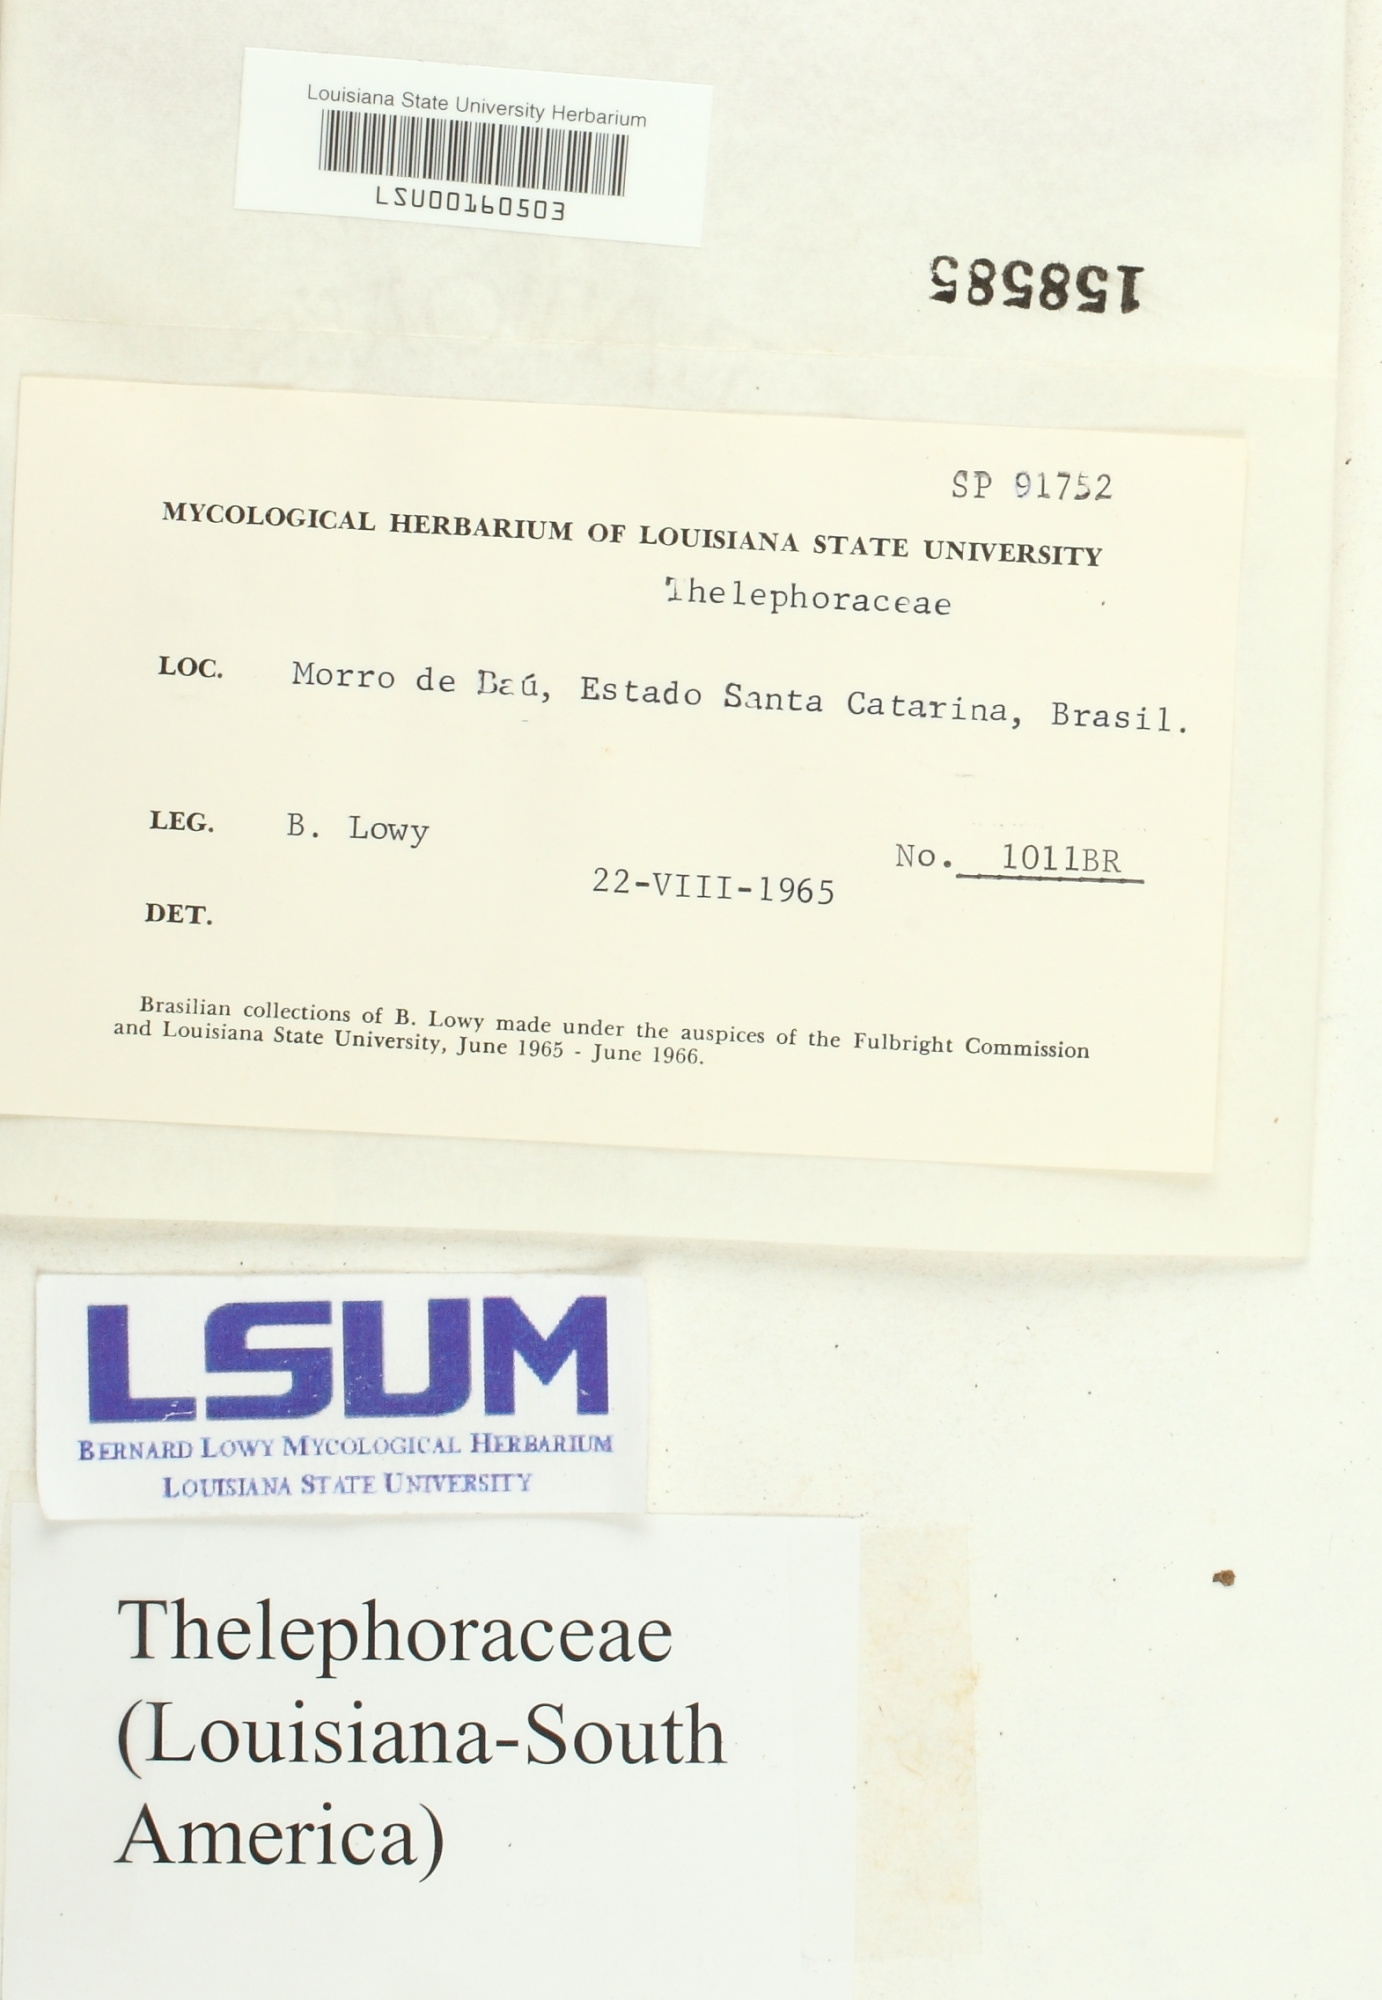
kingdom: Fungi
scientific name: Fungi
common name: Fungi
